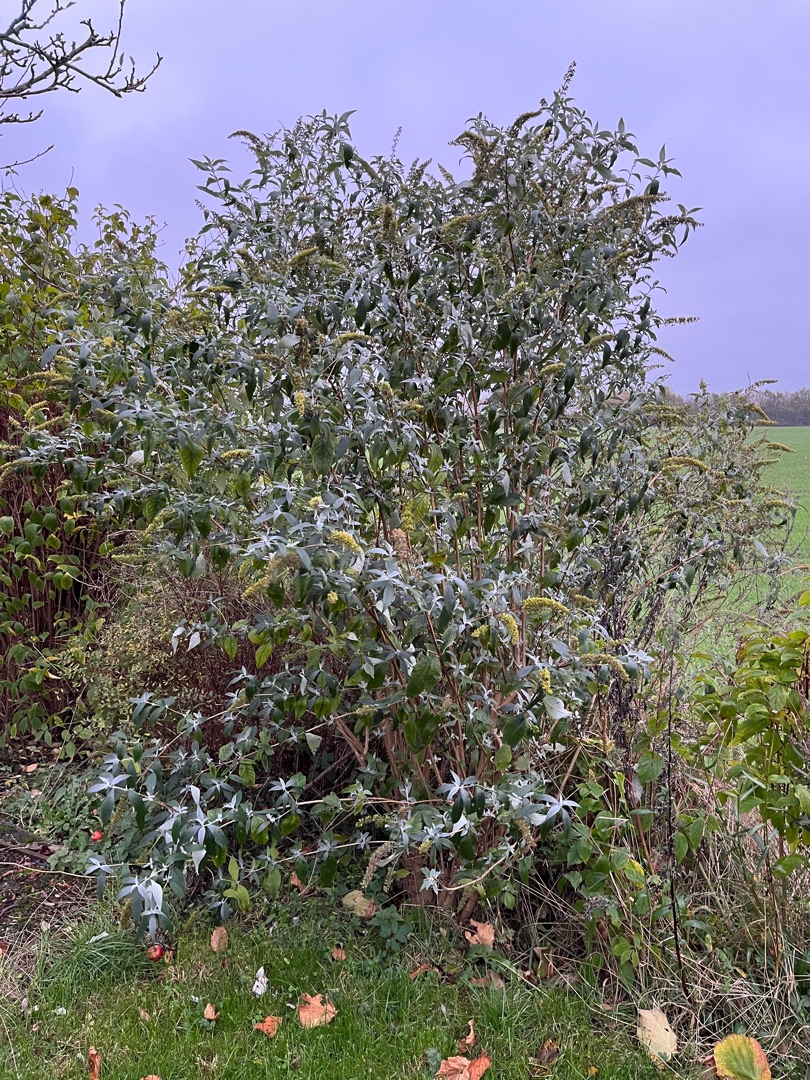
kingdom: Plantae
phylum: Tracheophyta
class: Magnoliopsida
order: Lamiales
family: Scrophulariaceae
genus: Buddleja
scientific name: Buddleja davidii
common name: Sommerfuglebusk
